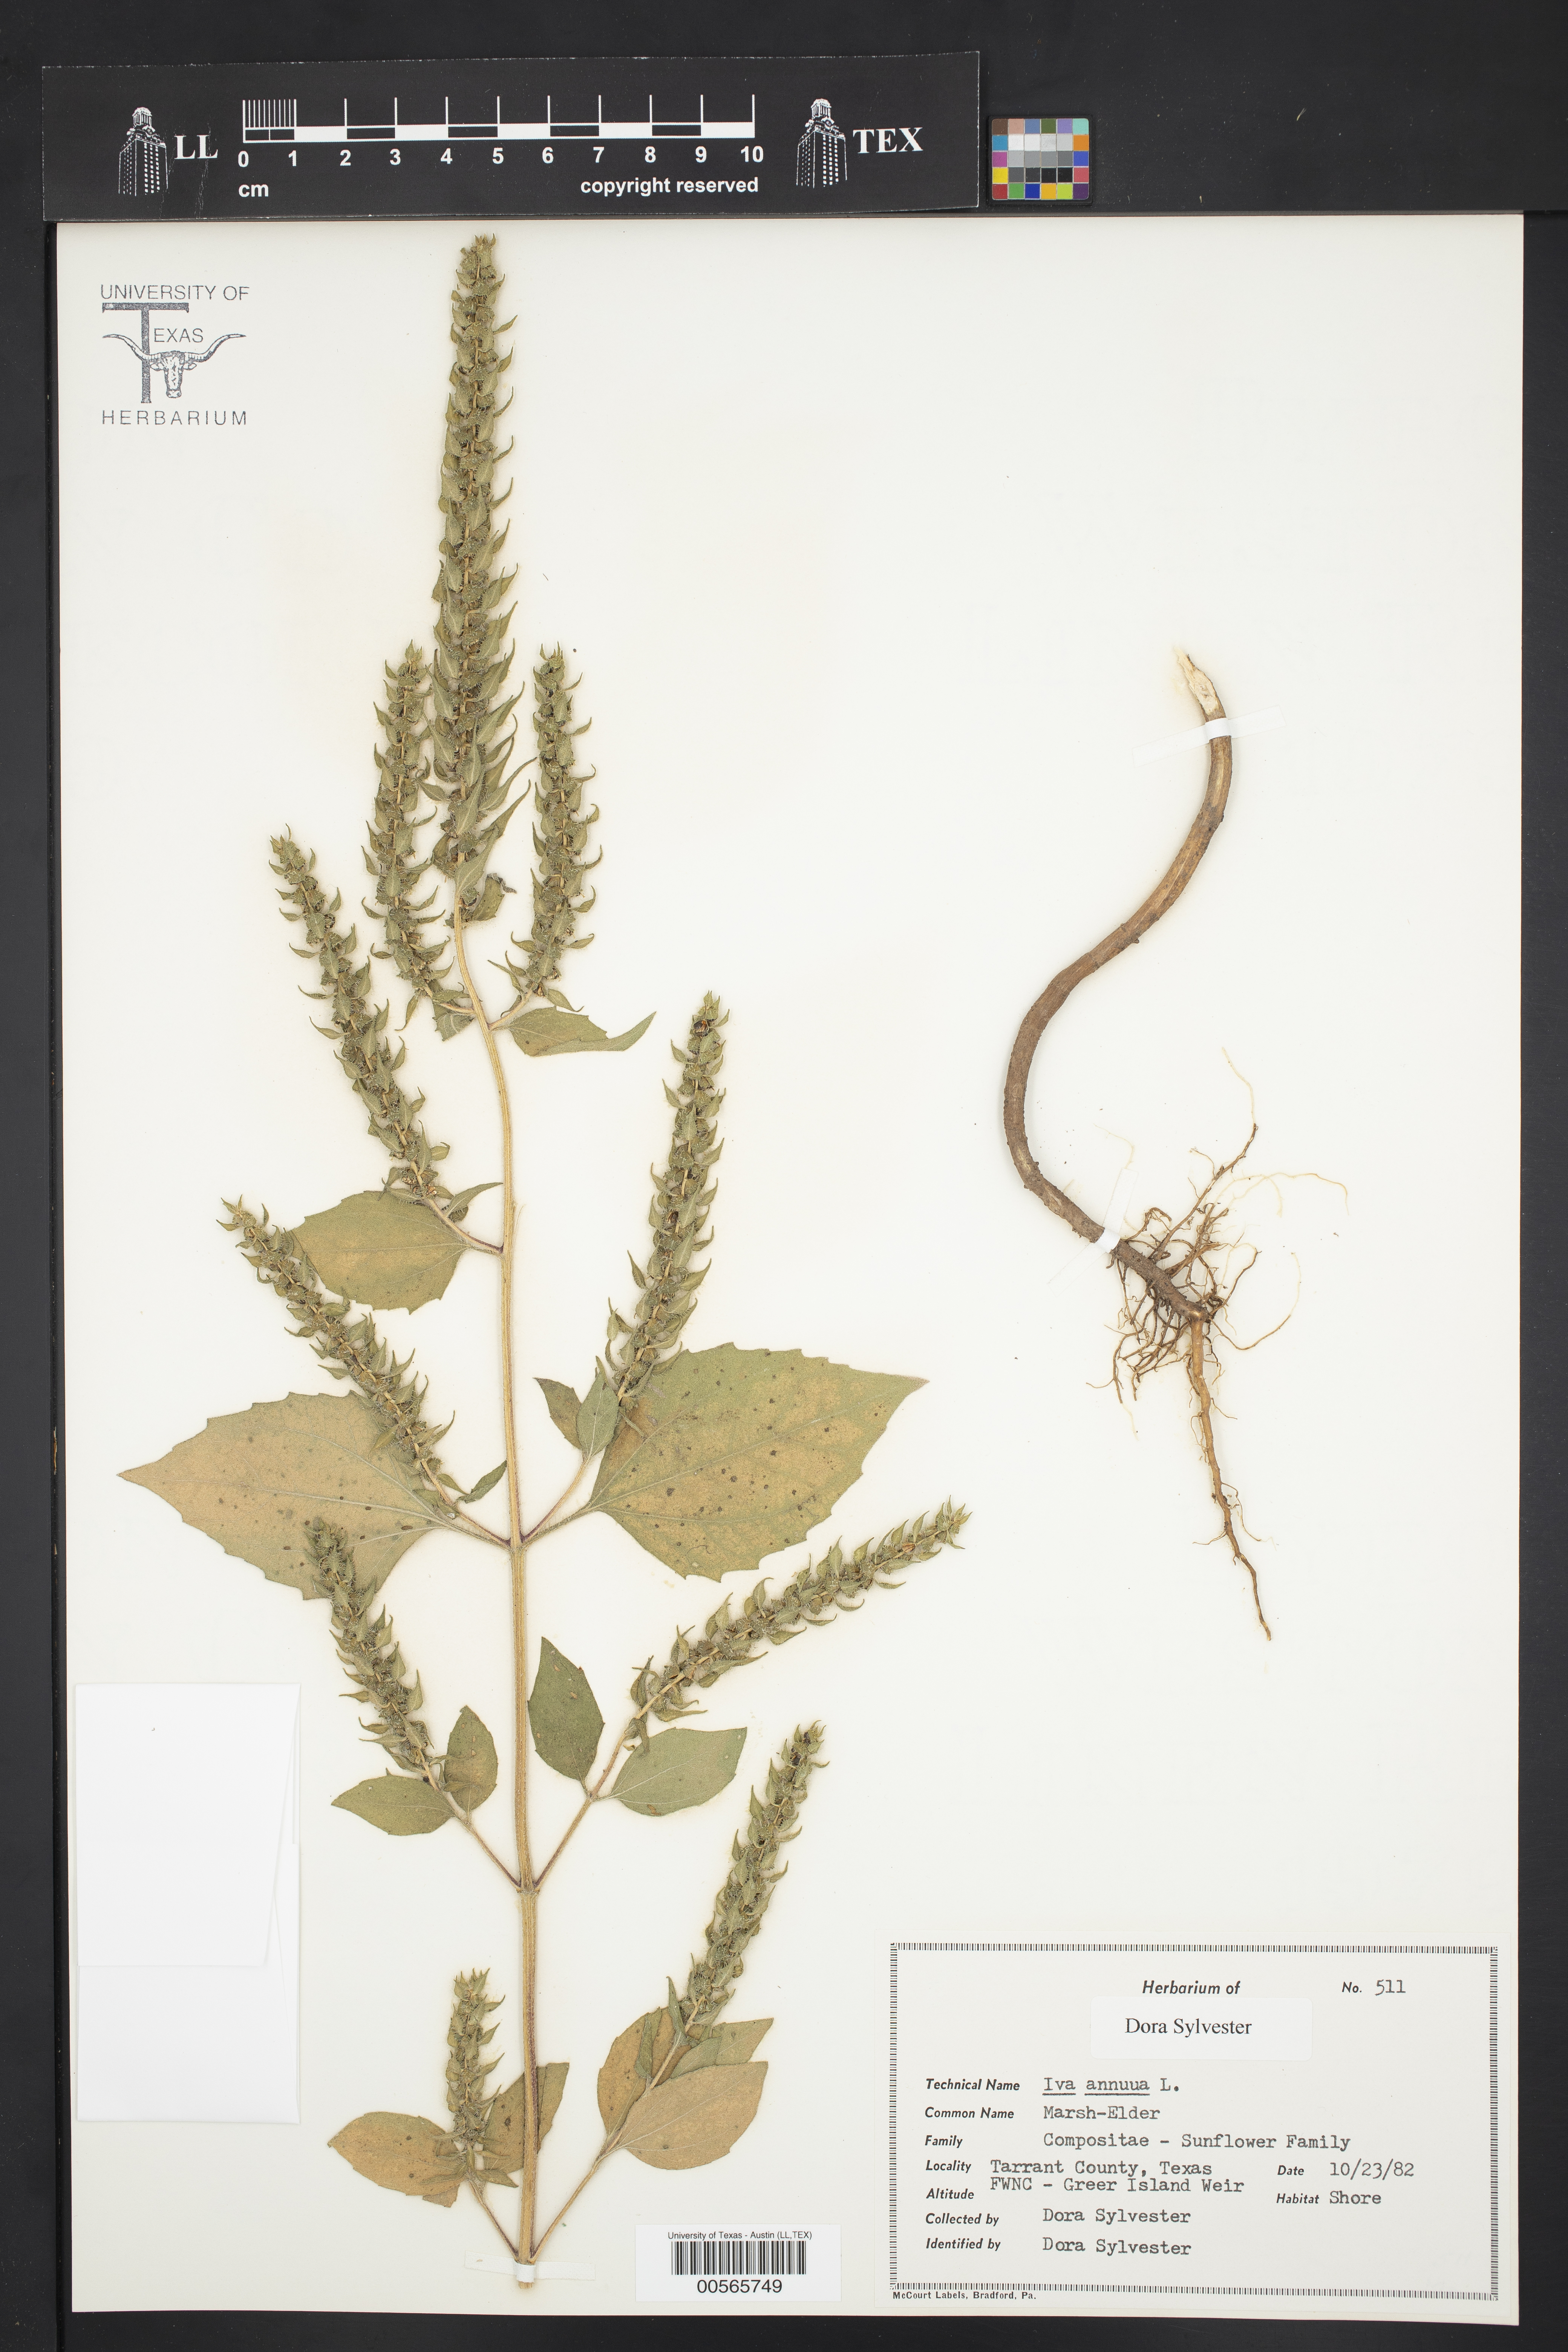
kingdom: Plantae
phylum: Tracheophyta
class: Magnoliopsida
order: Asterales
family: Asteraceae
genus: Iva
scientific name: Iva annua
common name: Marsh-elder
